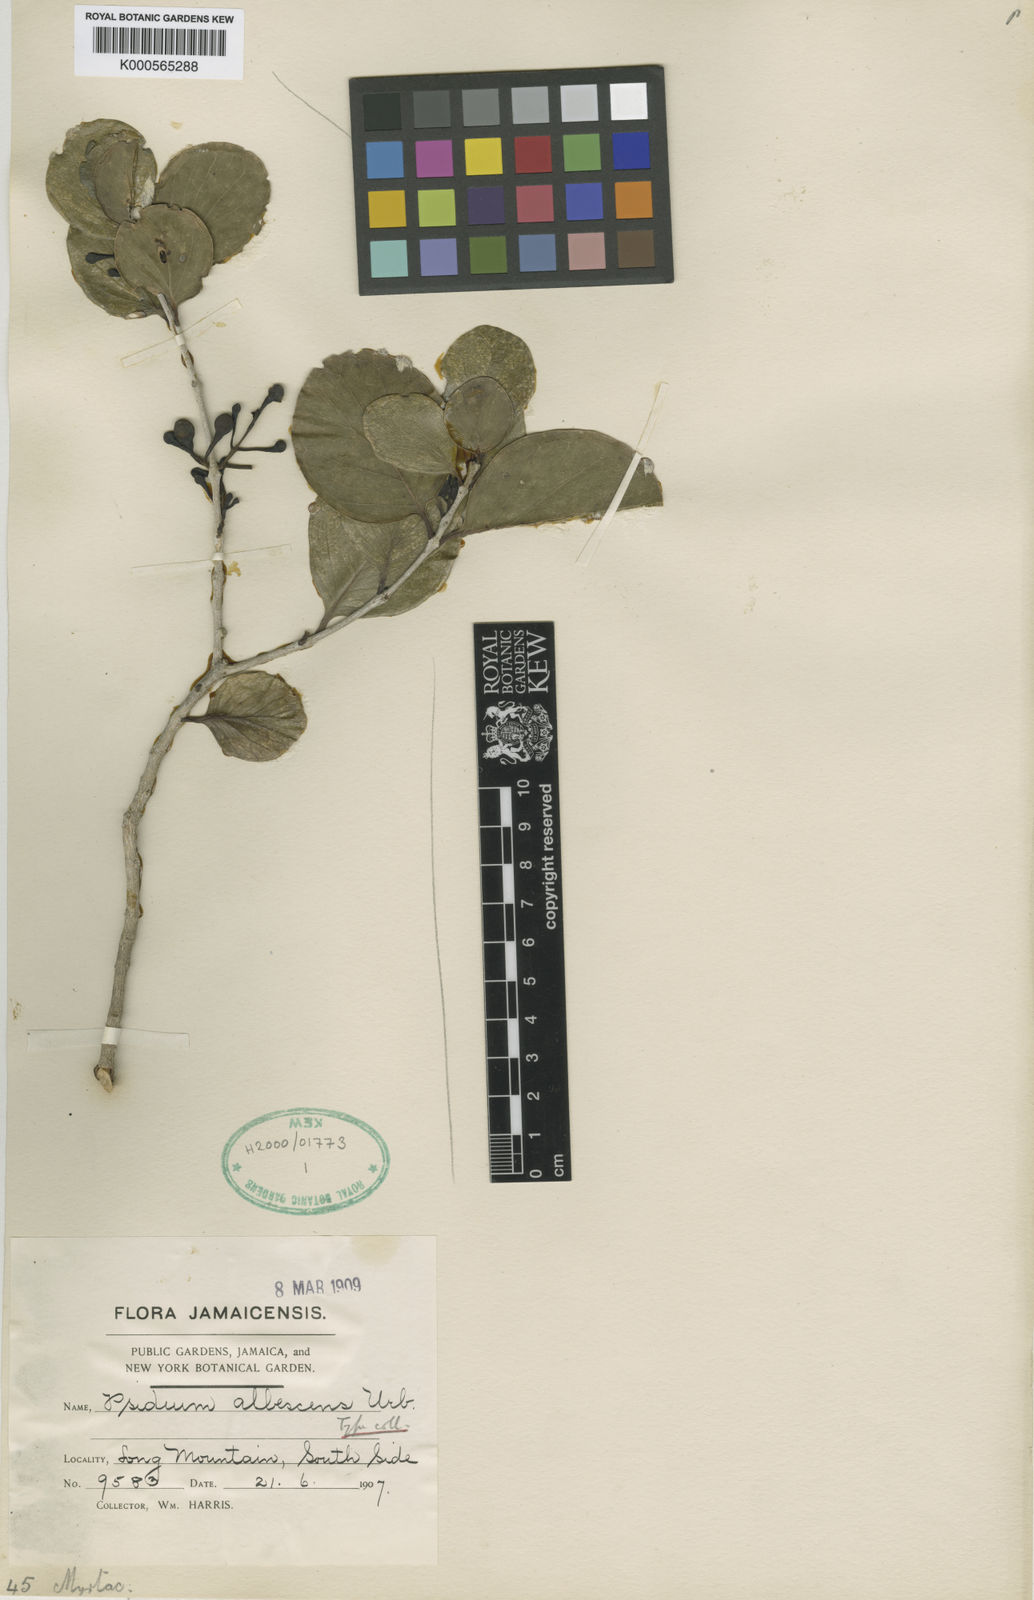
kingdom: Plantae
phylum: Tracheophyta
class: Magnoliopsida
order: Myrtales
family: Myrtaceae
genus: Psidium
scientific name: Psidium albescens
